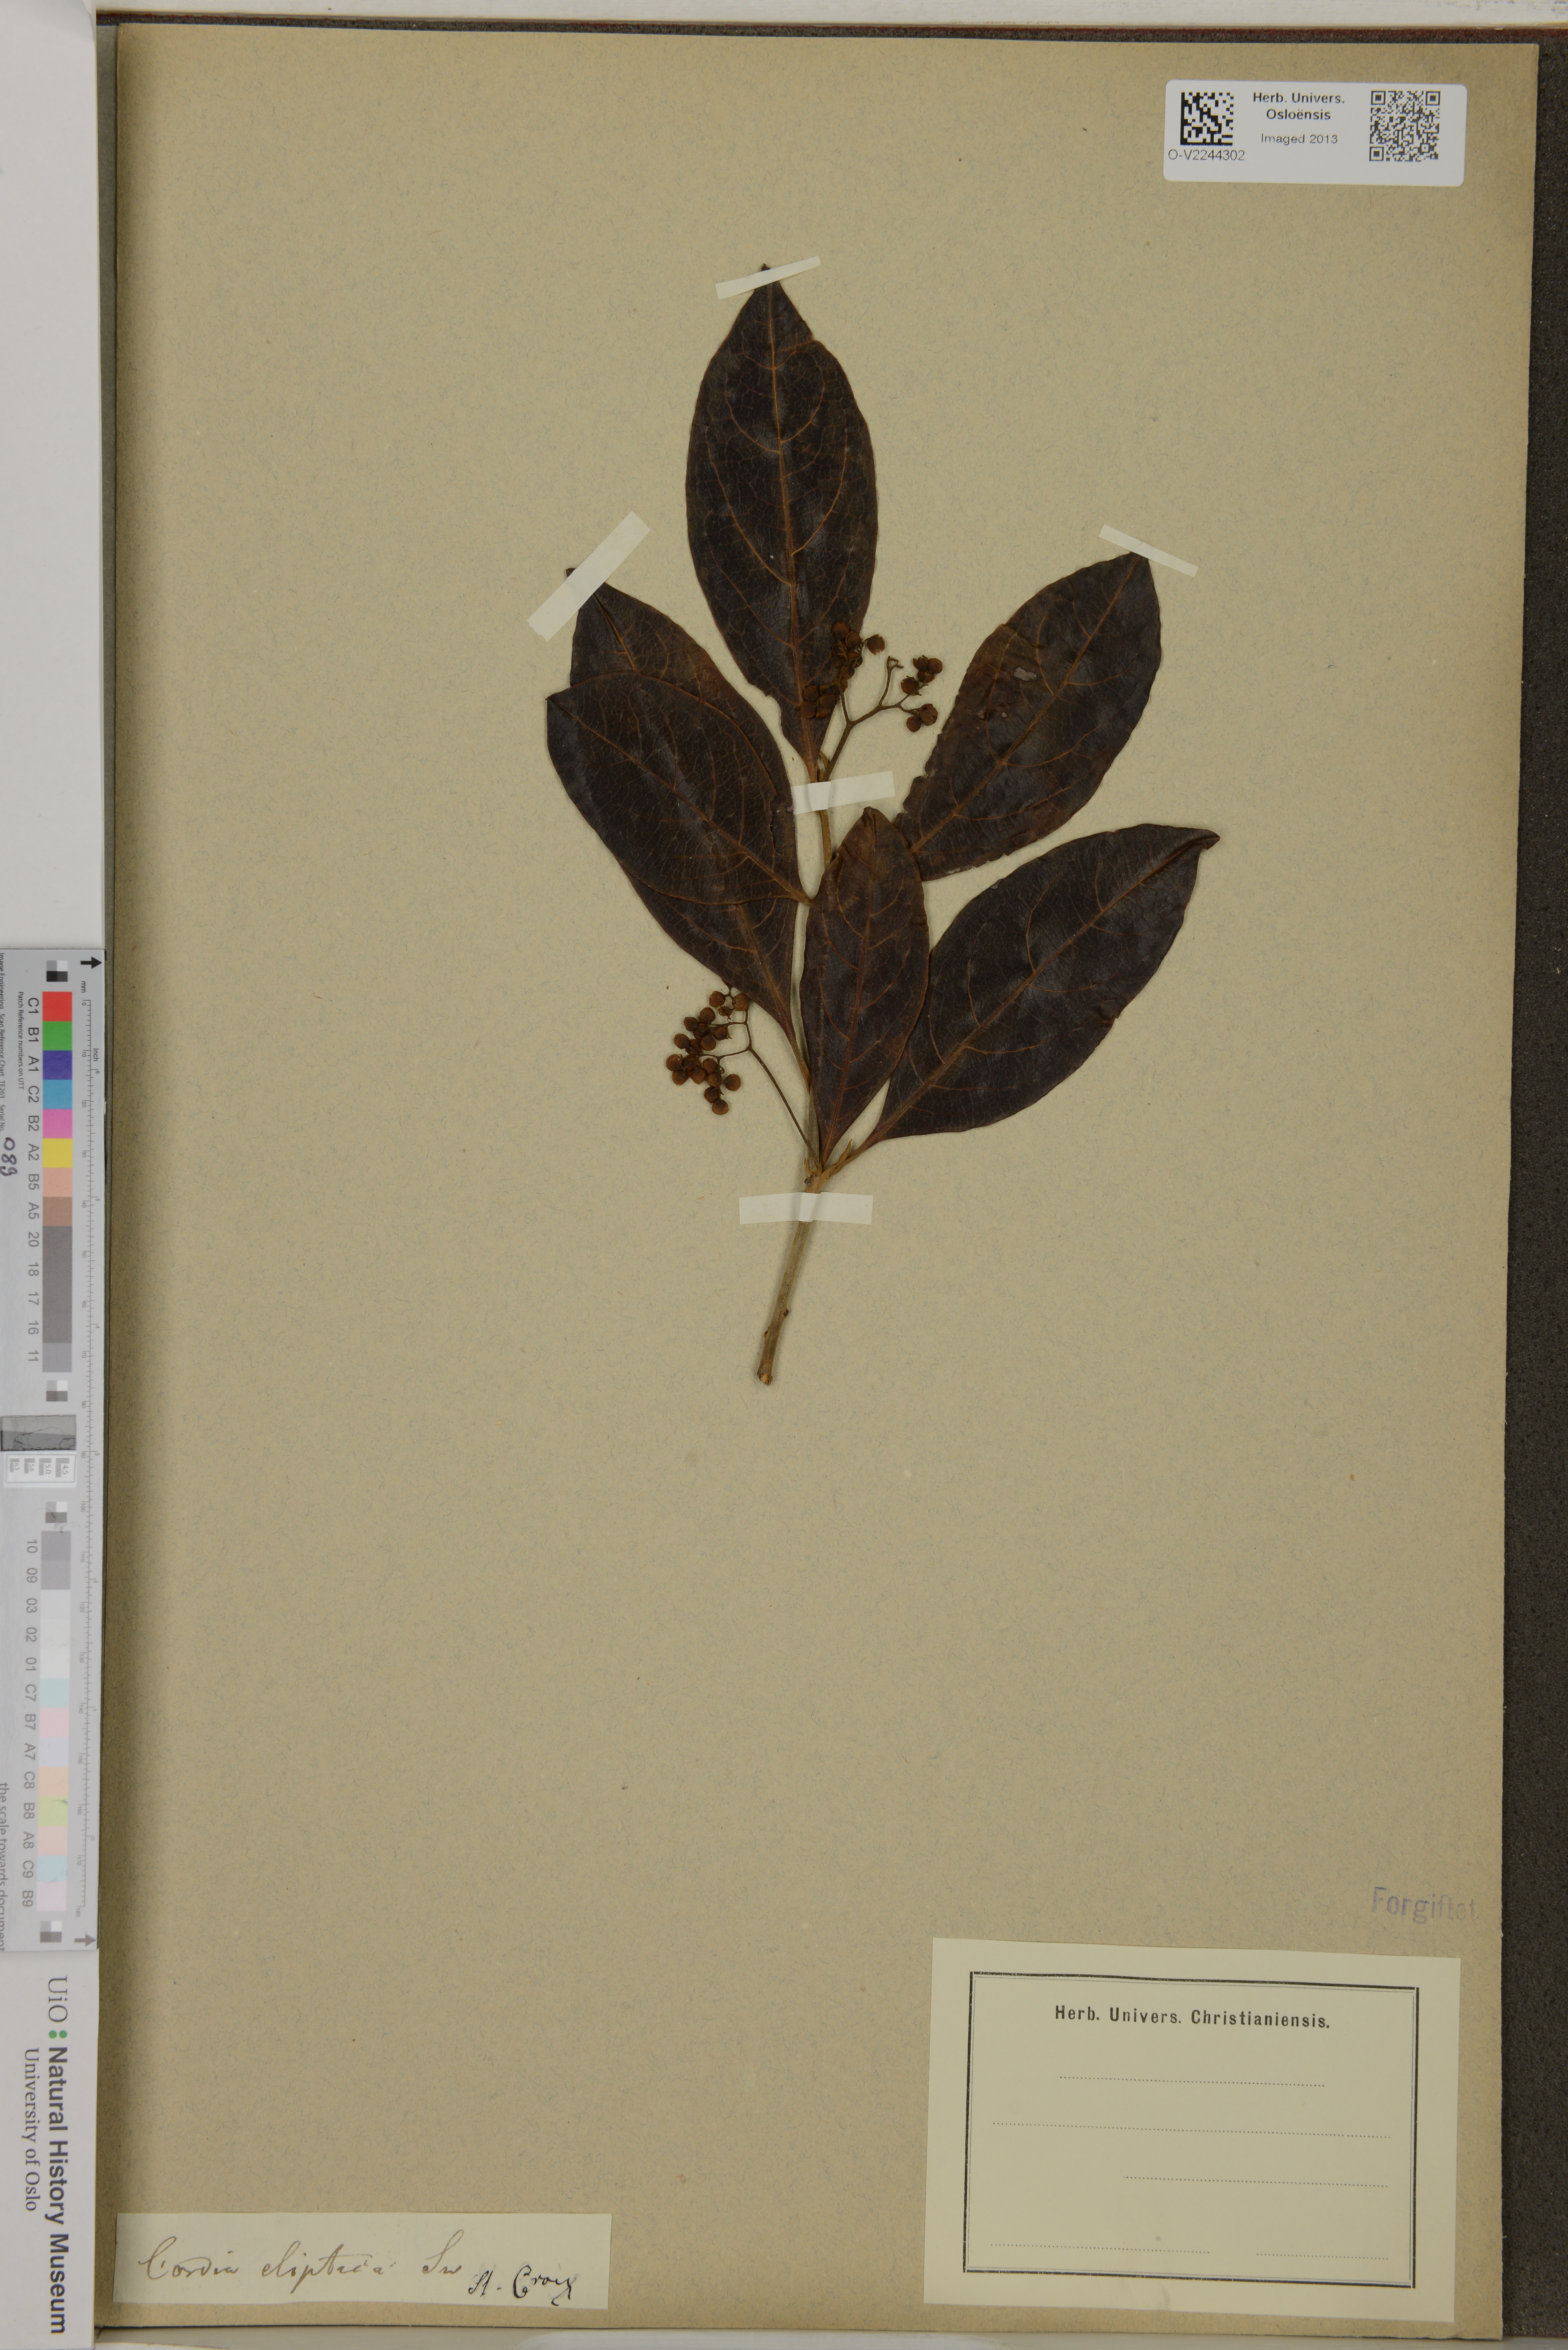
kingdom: Plantae
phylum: Tracheophyta
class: Magnoliopsida
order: Boraginales
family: Cordiaceae
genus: Cordia
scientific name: Cordia elliptica
